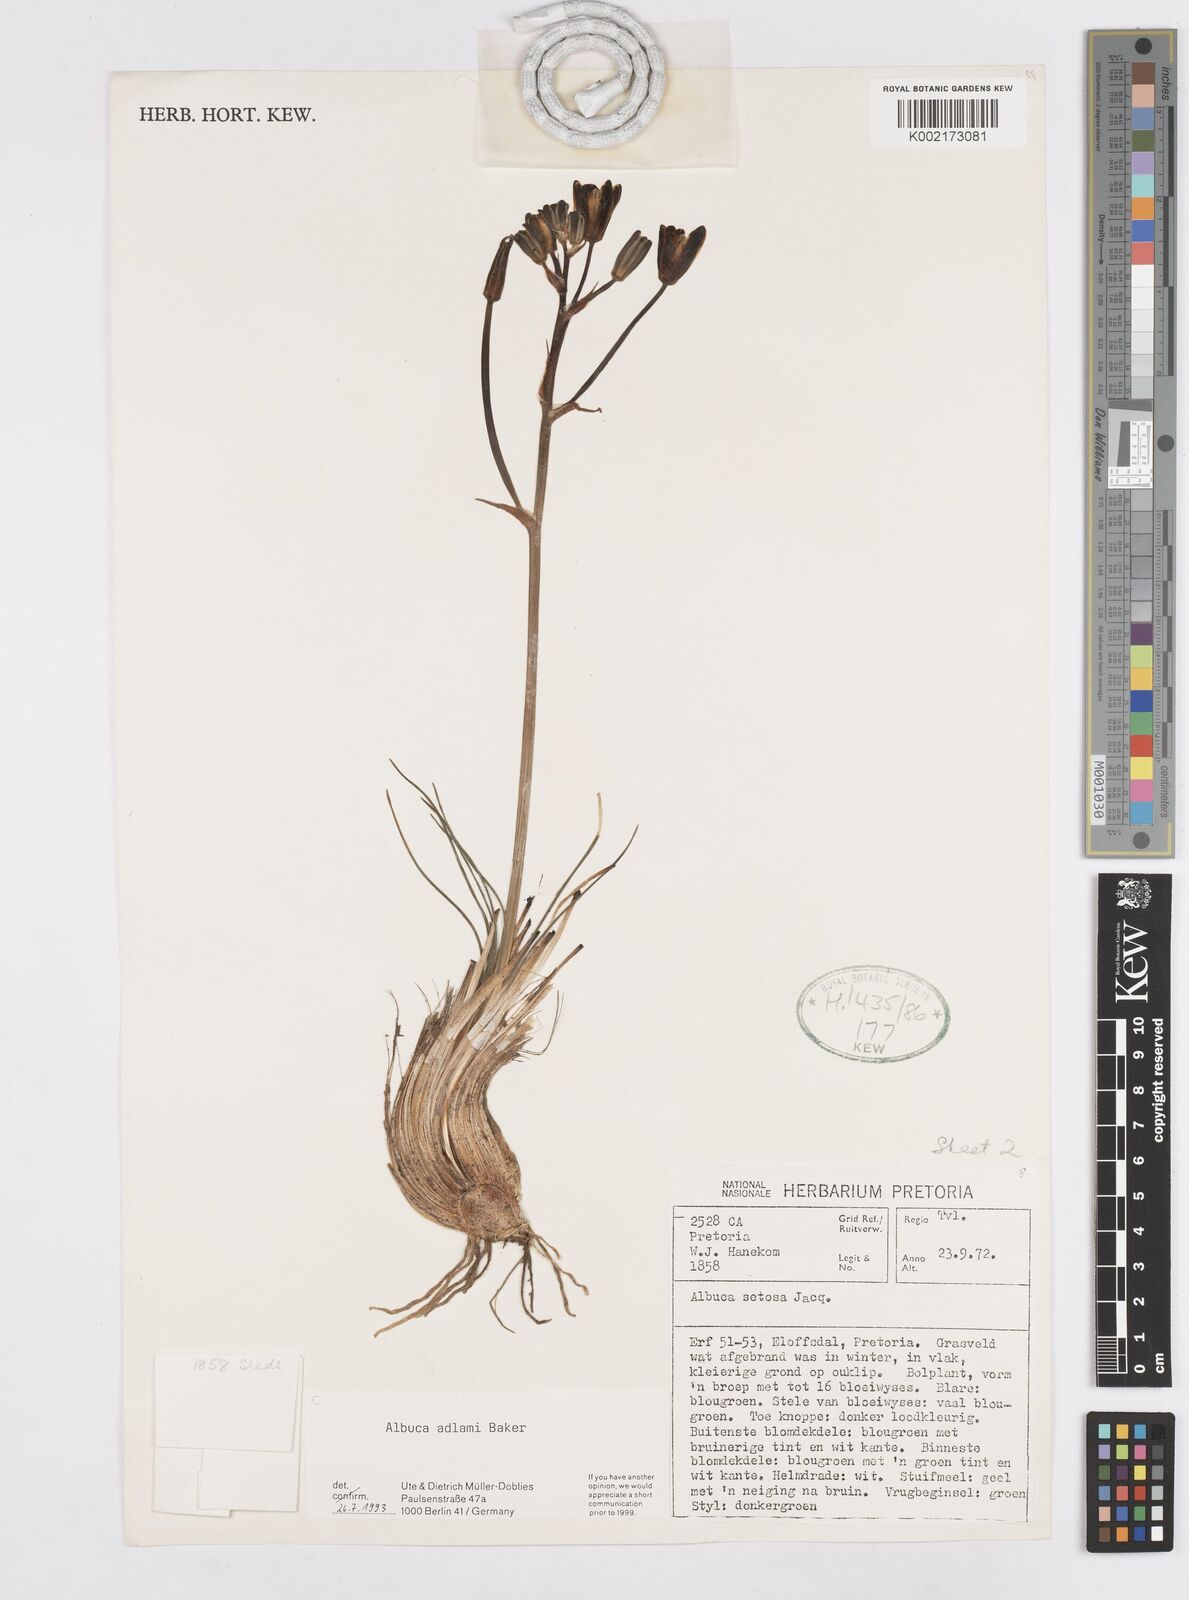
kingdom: Plantae
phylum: Tracheophyta
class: Liliopsida
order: Asparagales
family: Asparagaceae
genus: Albuca
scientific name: Albuca adlami
